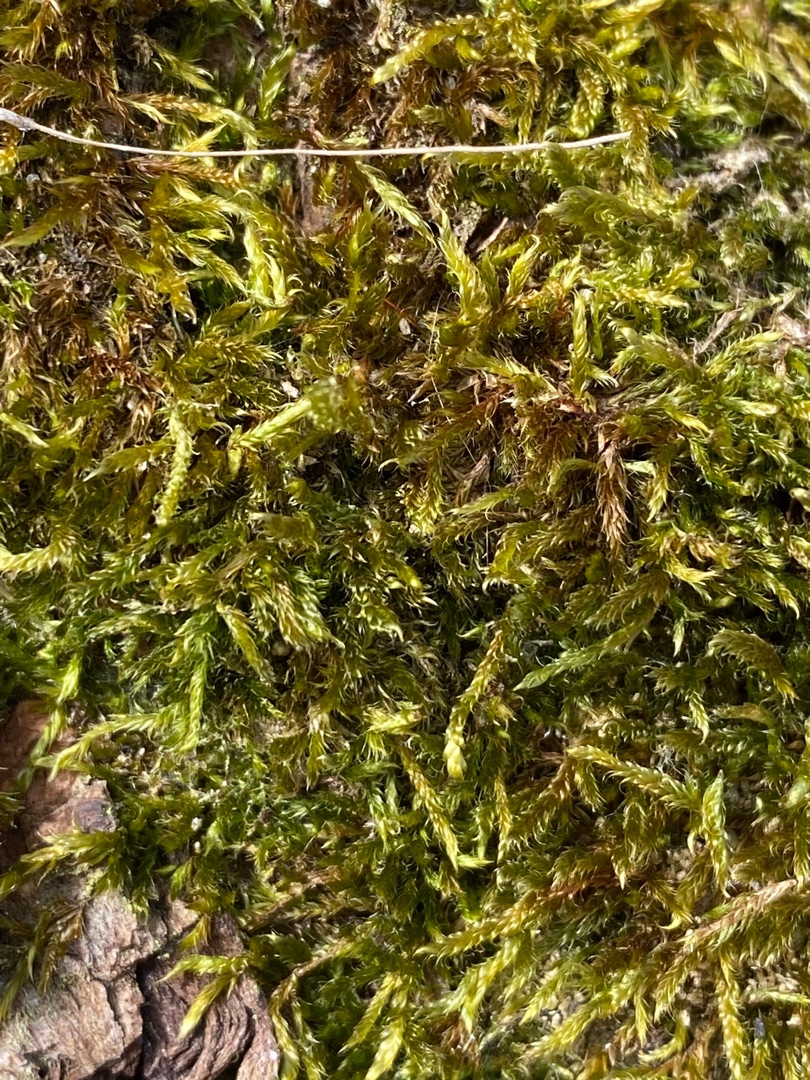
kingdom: Plantae
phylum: Bryophyta
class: Bryopsida
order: Hypnales
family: Hypnaceae
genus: Hypnum
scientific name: Hypnum cupressiforme
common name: Almindelig cypresmos
